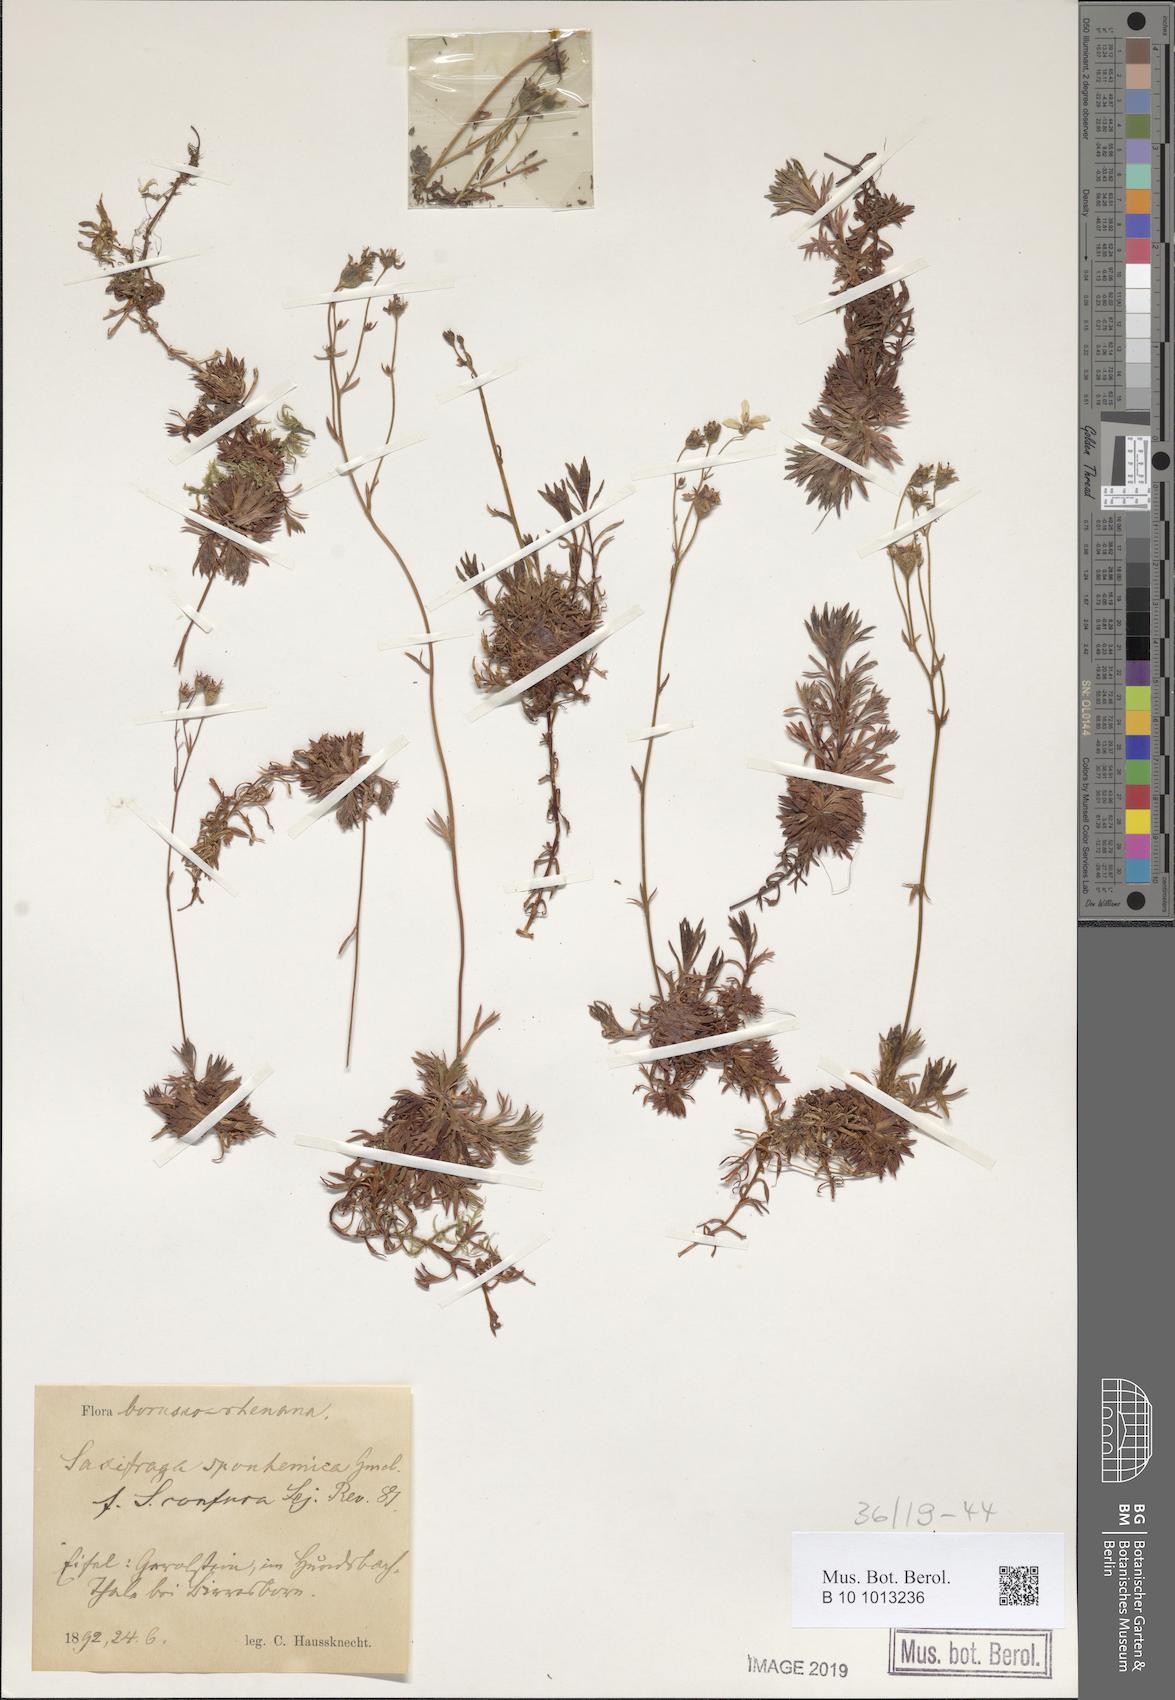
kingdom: Plantae
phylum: Tracheophyta
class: Magnoliopsida
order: Saxifragales
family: Saxifragaceae
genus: Saxifraga
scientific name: Saxifraga rosacea
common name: Irish saxifrage
